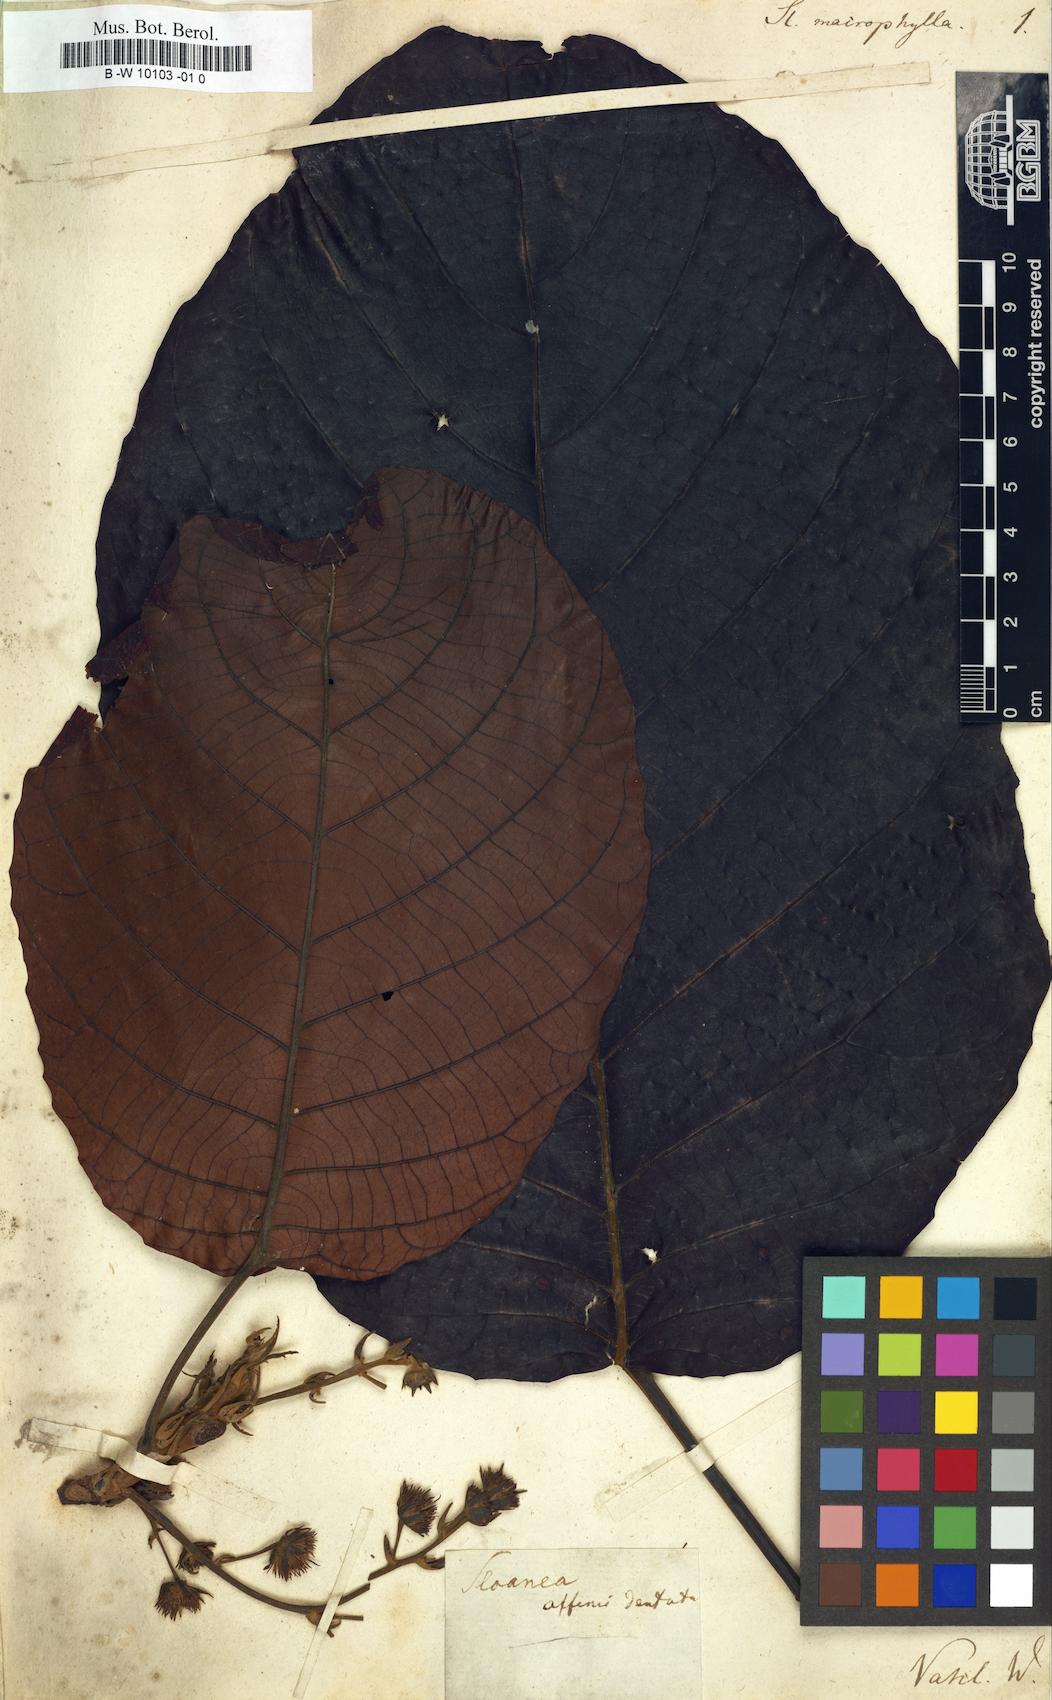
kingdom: Plantae
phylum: Tracheophyta
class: Magnoliopsida
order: Oxalidales
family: Elaeocarpaceae
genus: Sloanea
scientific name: Sloanea macrophylla
